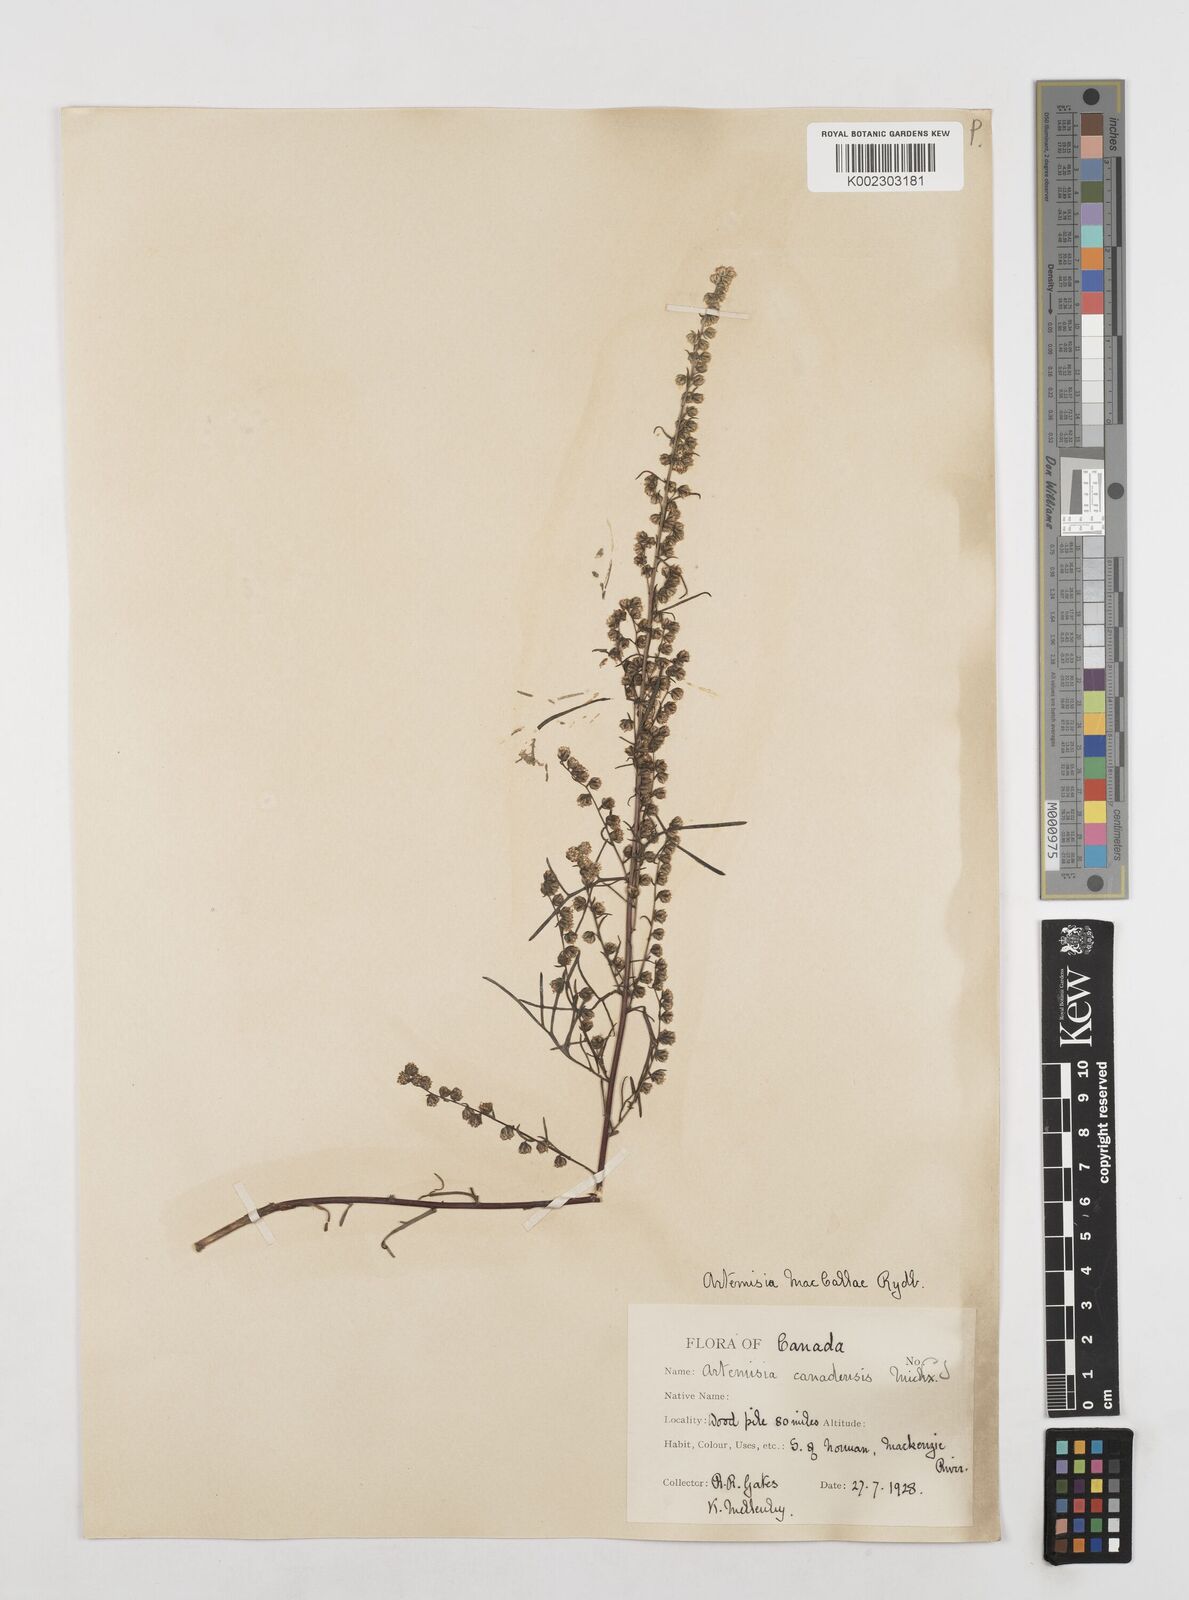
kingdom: Plantae
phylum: Tracheophyta
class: Magnoliopsida
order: Asterales
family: Asteraceae
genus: Artemisia
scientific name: Artemisia campestris
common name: Field wormwood
